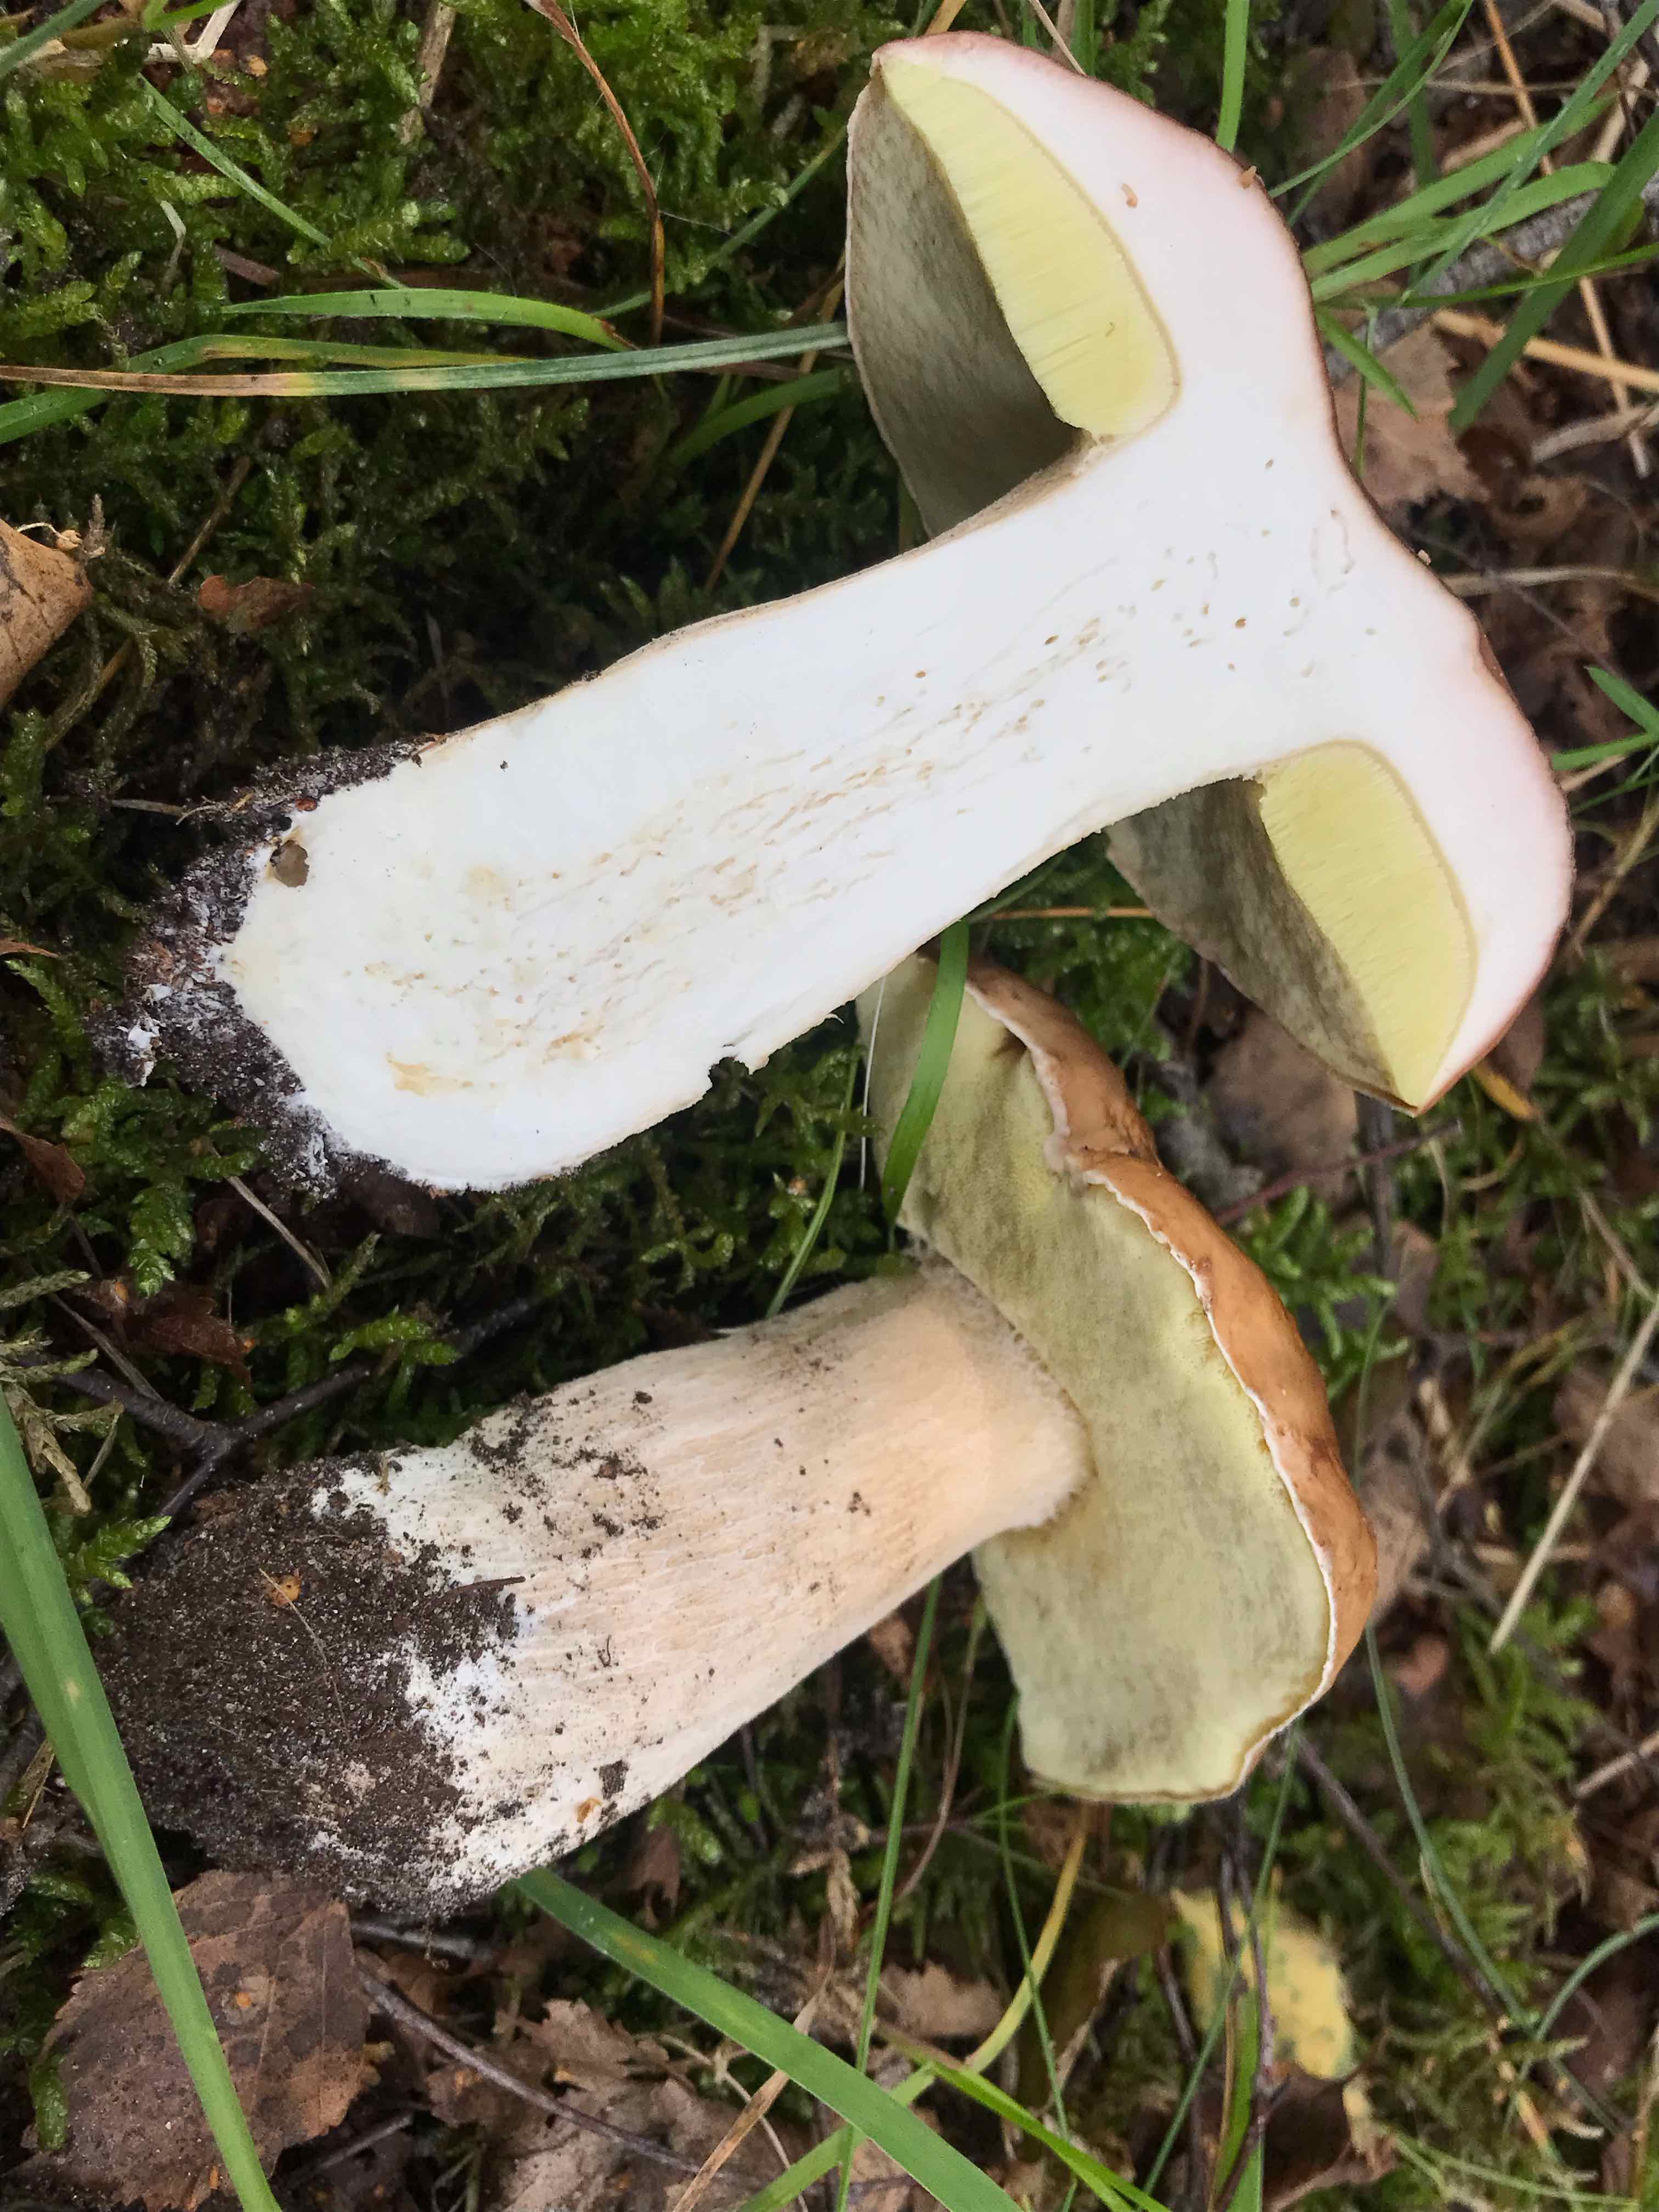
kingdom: Fungi
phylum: Basidiomycota
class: Agaricomycetes
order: Boletales
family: Boletaceae
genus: Boletus
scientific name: Boletus edulis
